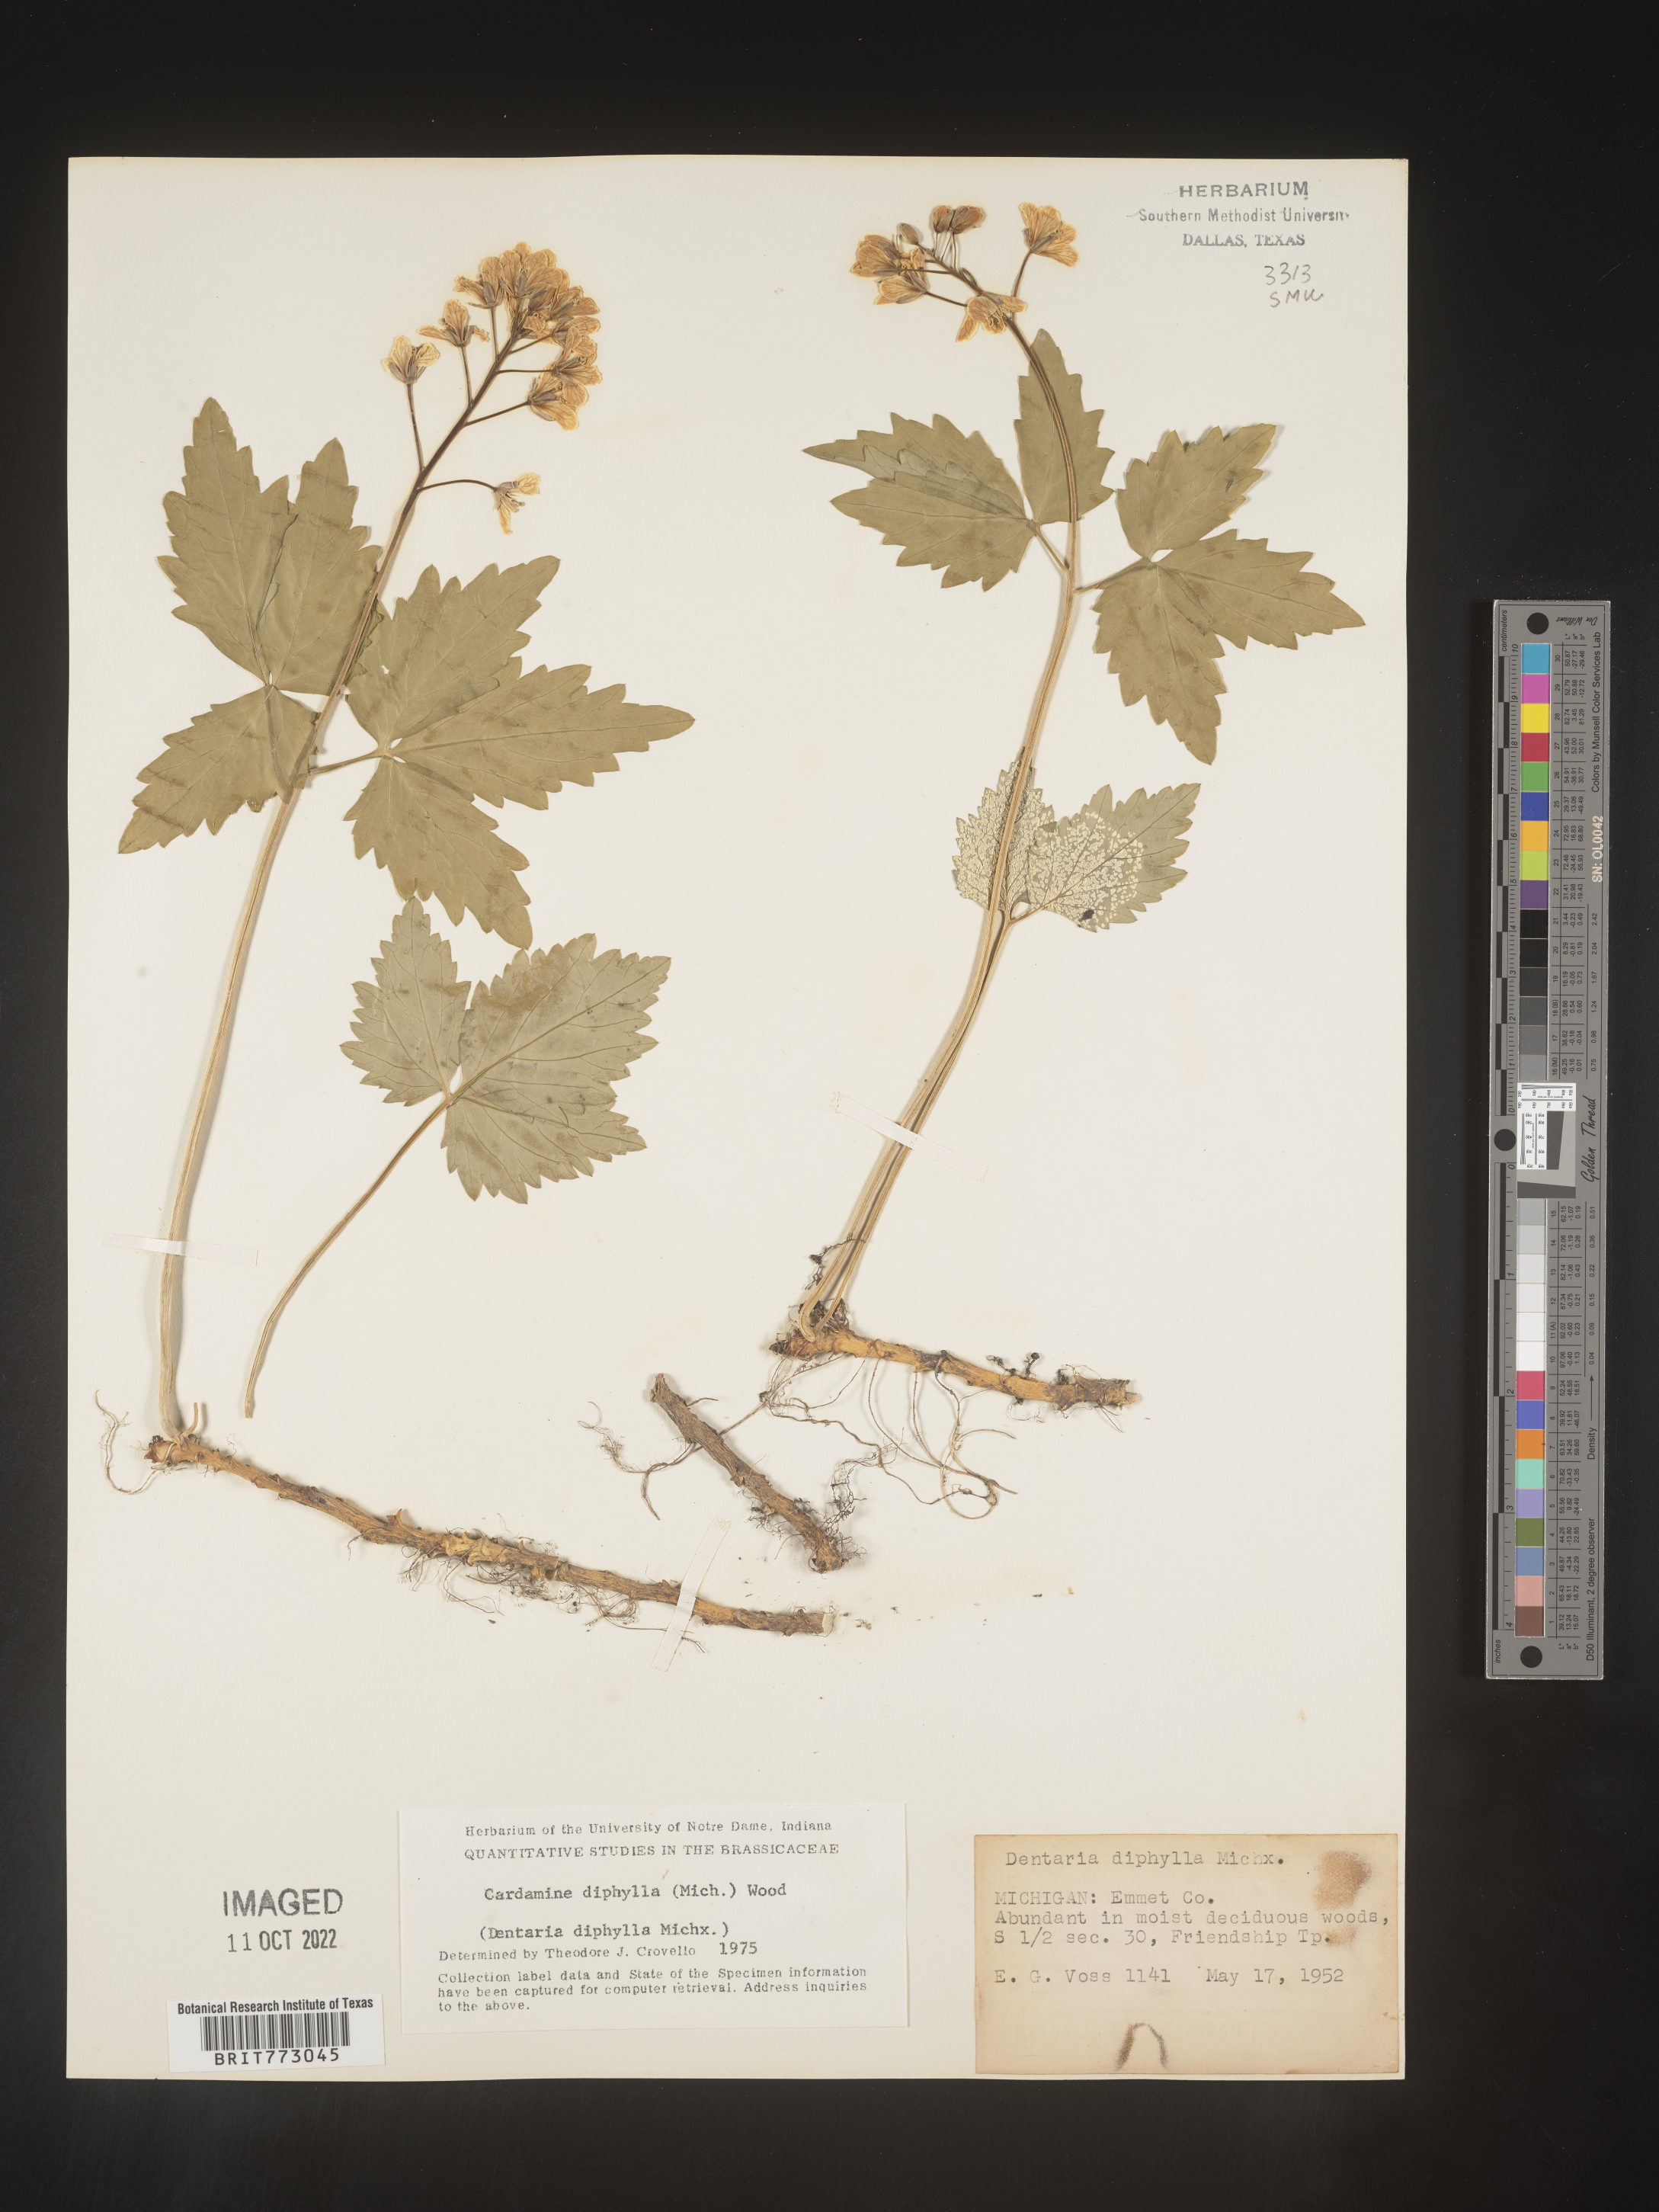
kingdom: Plantae
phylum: Tracheophyta
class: Magnoliopsida
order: Brassicales
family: Brassicaceae
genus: Cardamine
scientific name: Cardamine diphylla
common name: Broad-leaved toothwort
